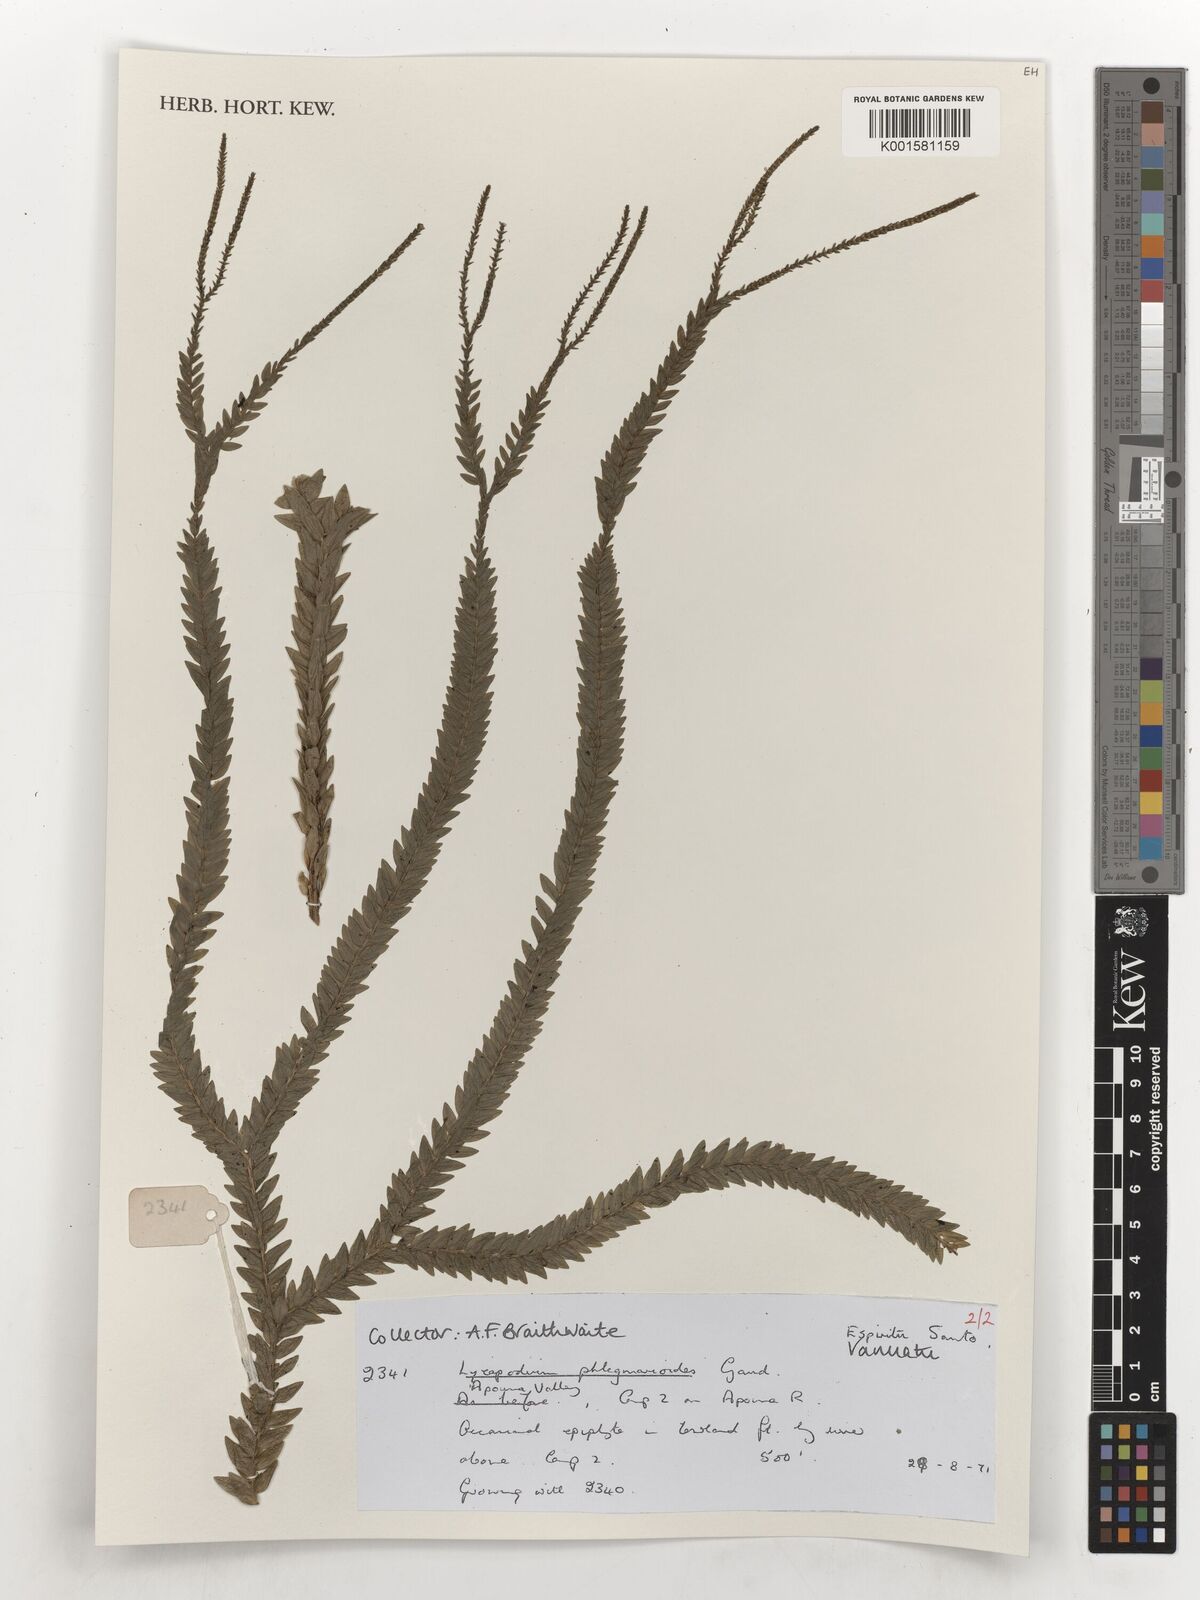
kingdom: Plantae
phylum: Tracheophyta
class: Lycopodiopsida
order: Lycopodiales
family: Lycopodiaceae
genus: Phlegmariurus
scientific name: Phlegmariurus phlegmarioides
